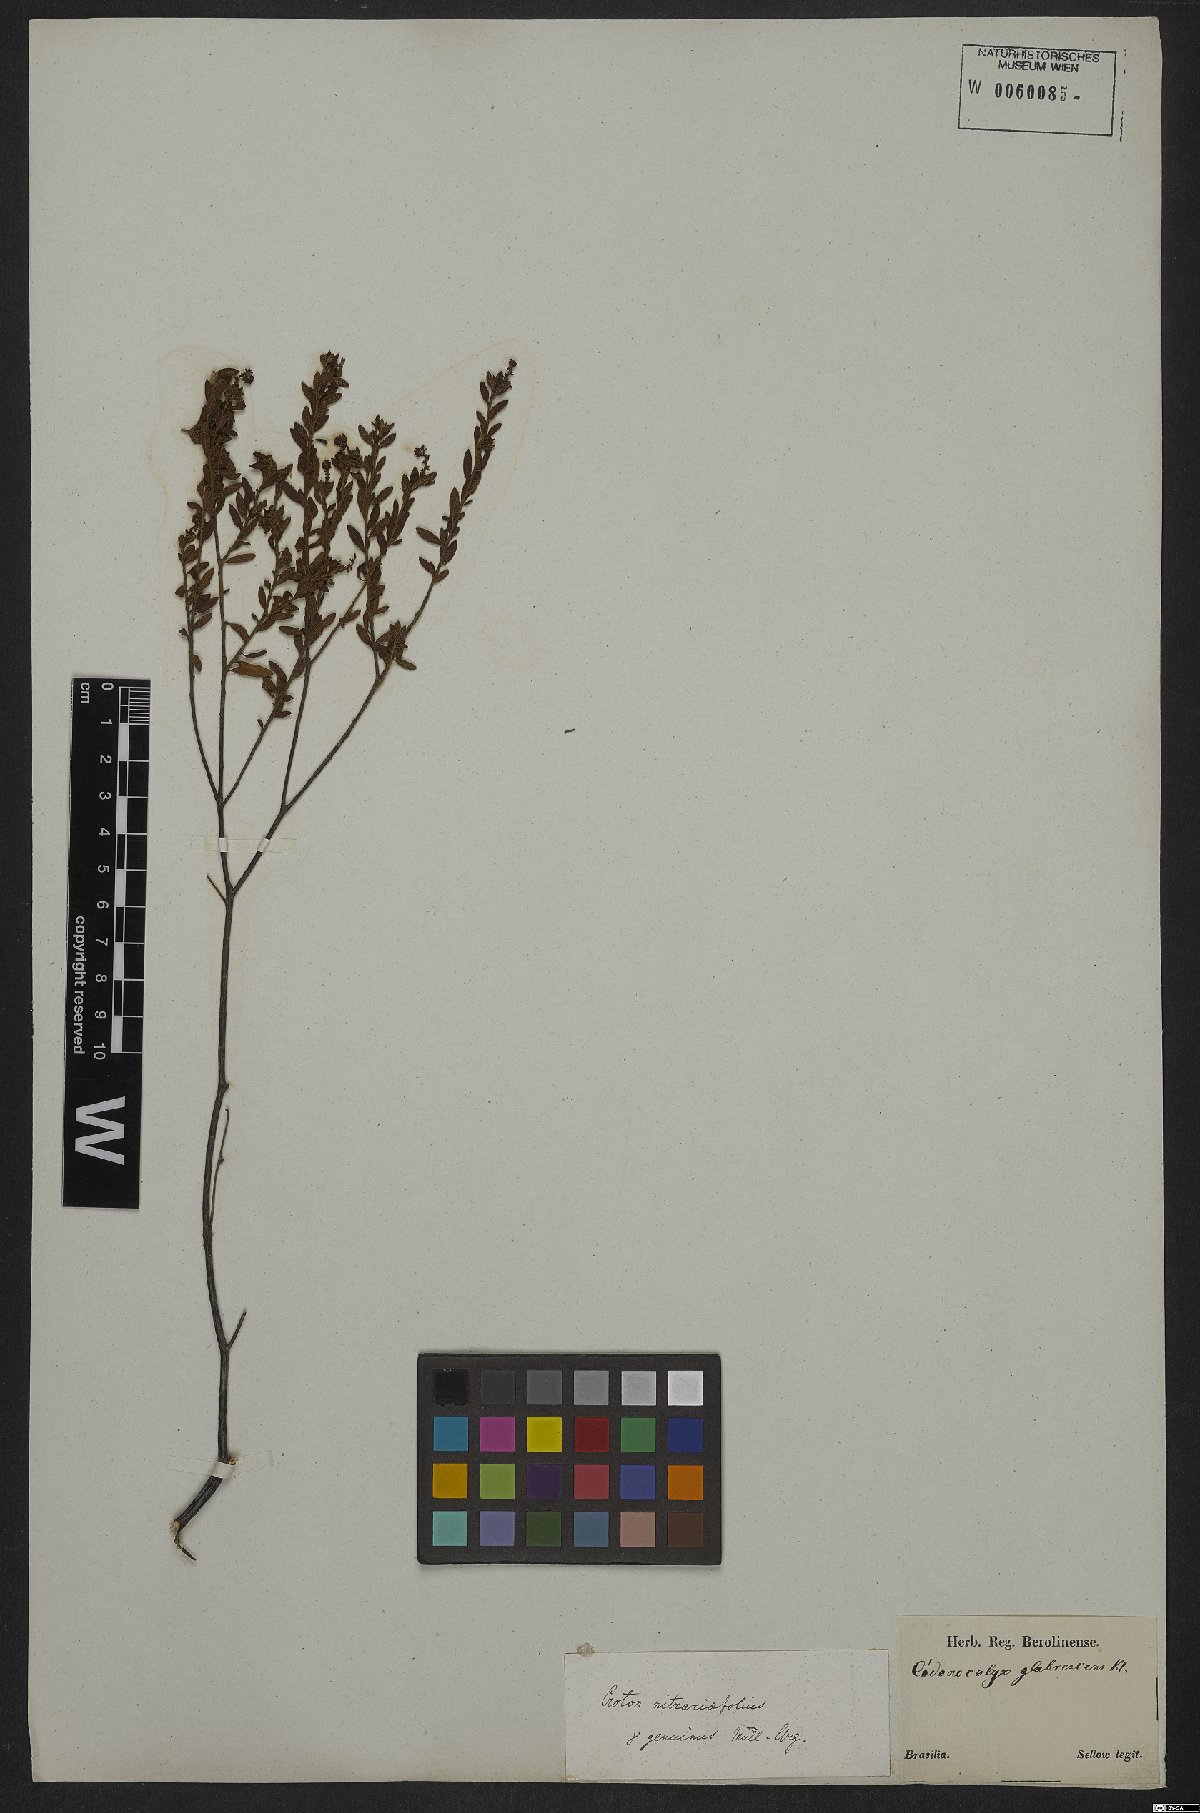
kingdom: Plantae
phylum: Tracheophyta
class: Magnoliopsida
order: Malpighiales
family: Euphorbiaceae
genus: Croton
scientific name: Croton nitrariifolius
